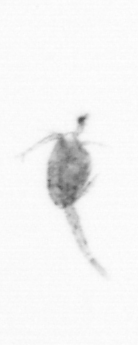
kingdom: Animalia
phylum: Arthropoda
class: Copepoda
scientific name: Copepoda
